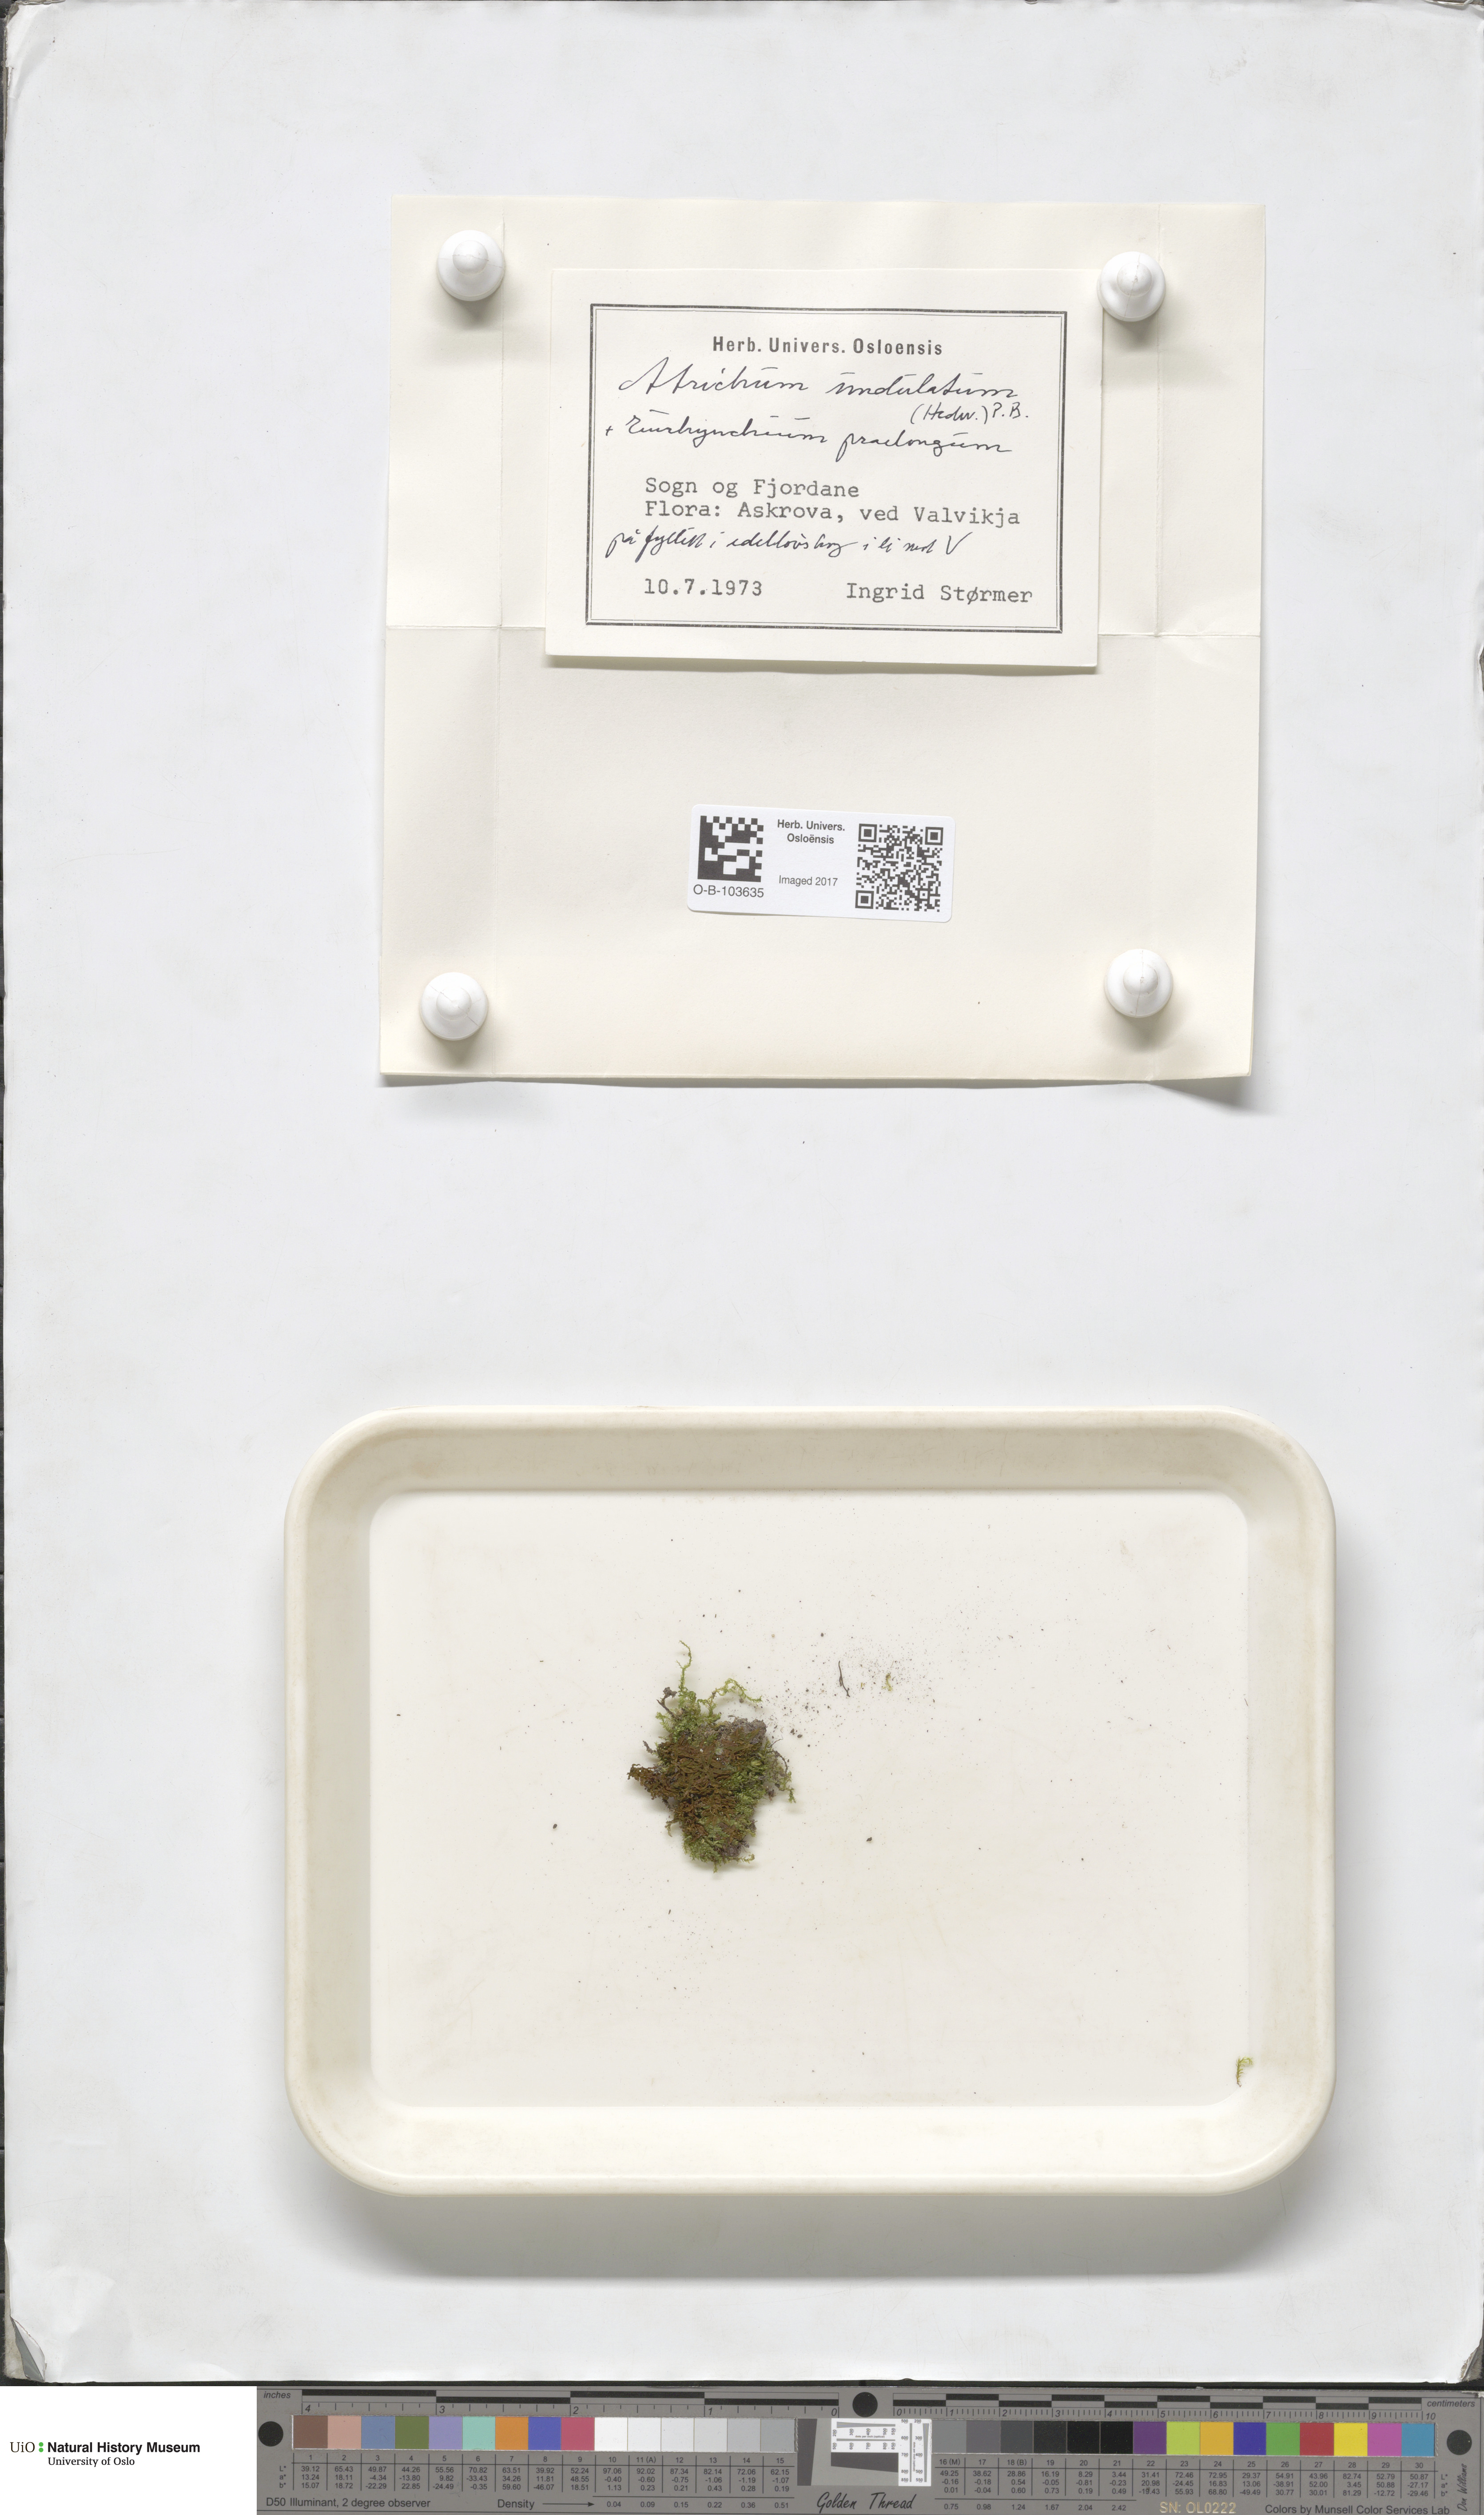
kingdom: Plantae
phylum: Bryophyta
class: Polytrichopsida
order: Polytrichales
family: Polytrichaceae
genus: Atrichum
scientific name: Atrichum undulatum
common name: Common smoothcap
